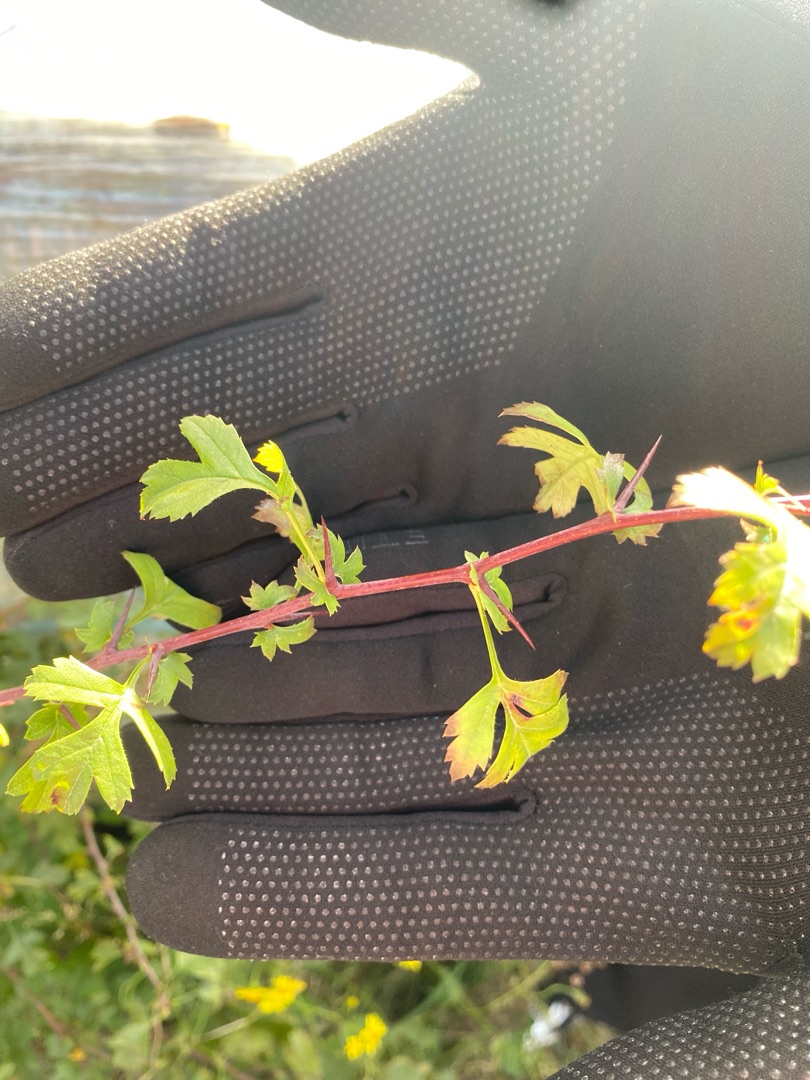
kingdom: Plantae
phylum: Tracheophyta
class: Magnoliopsida
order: Rosales
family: Rosaceae
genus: Crataegus
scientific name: Crataegus monogyna
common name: Engriflet hvidtjørn
